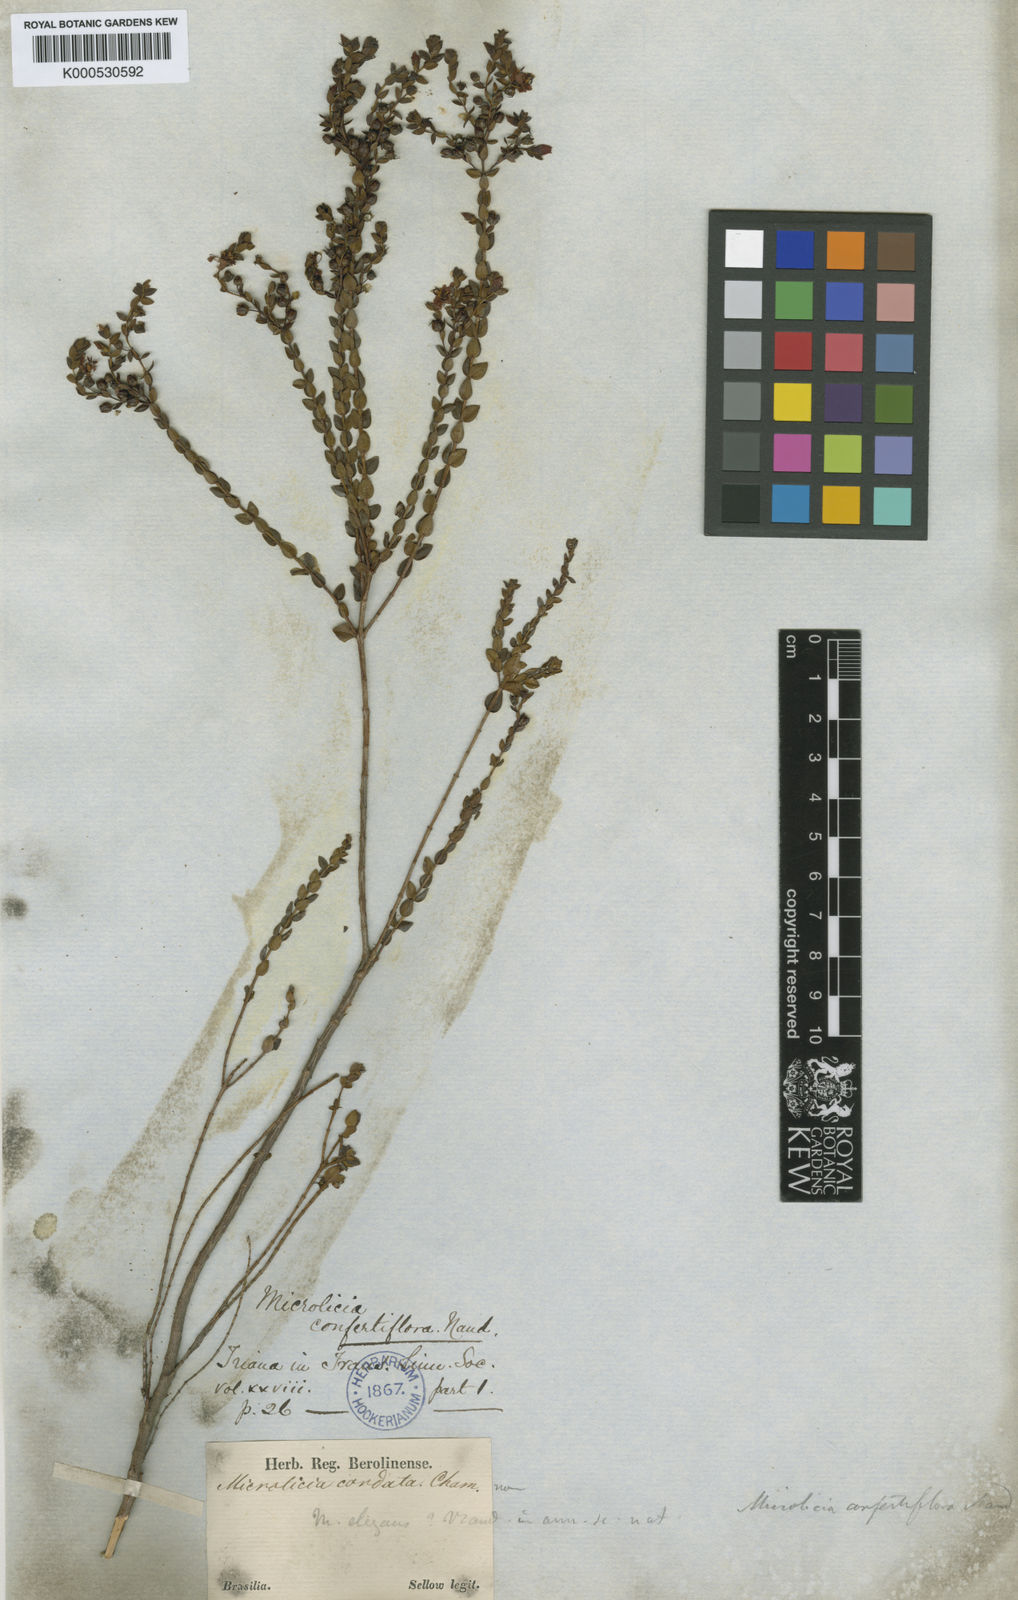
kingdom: Plantae
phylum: Tracheophyta
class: Magnoliopsida
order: Myrtales
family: Melastomataceae
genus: Microlicia
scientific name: Microlicia confertiflora
